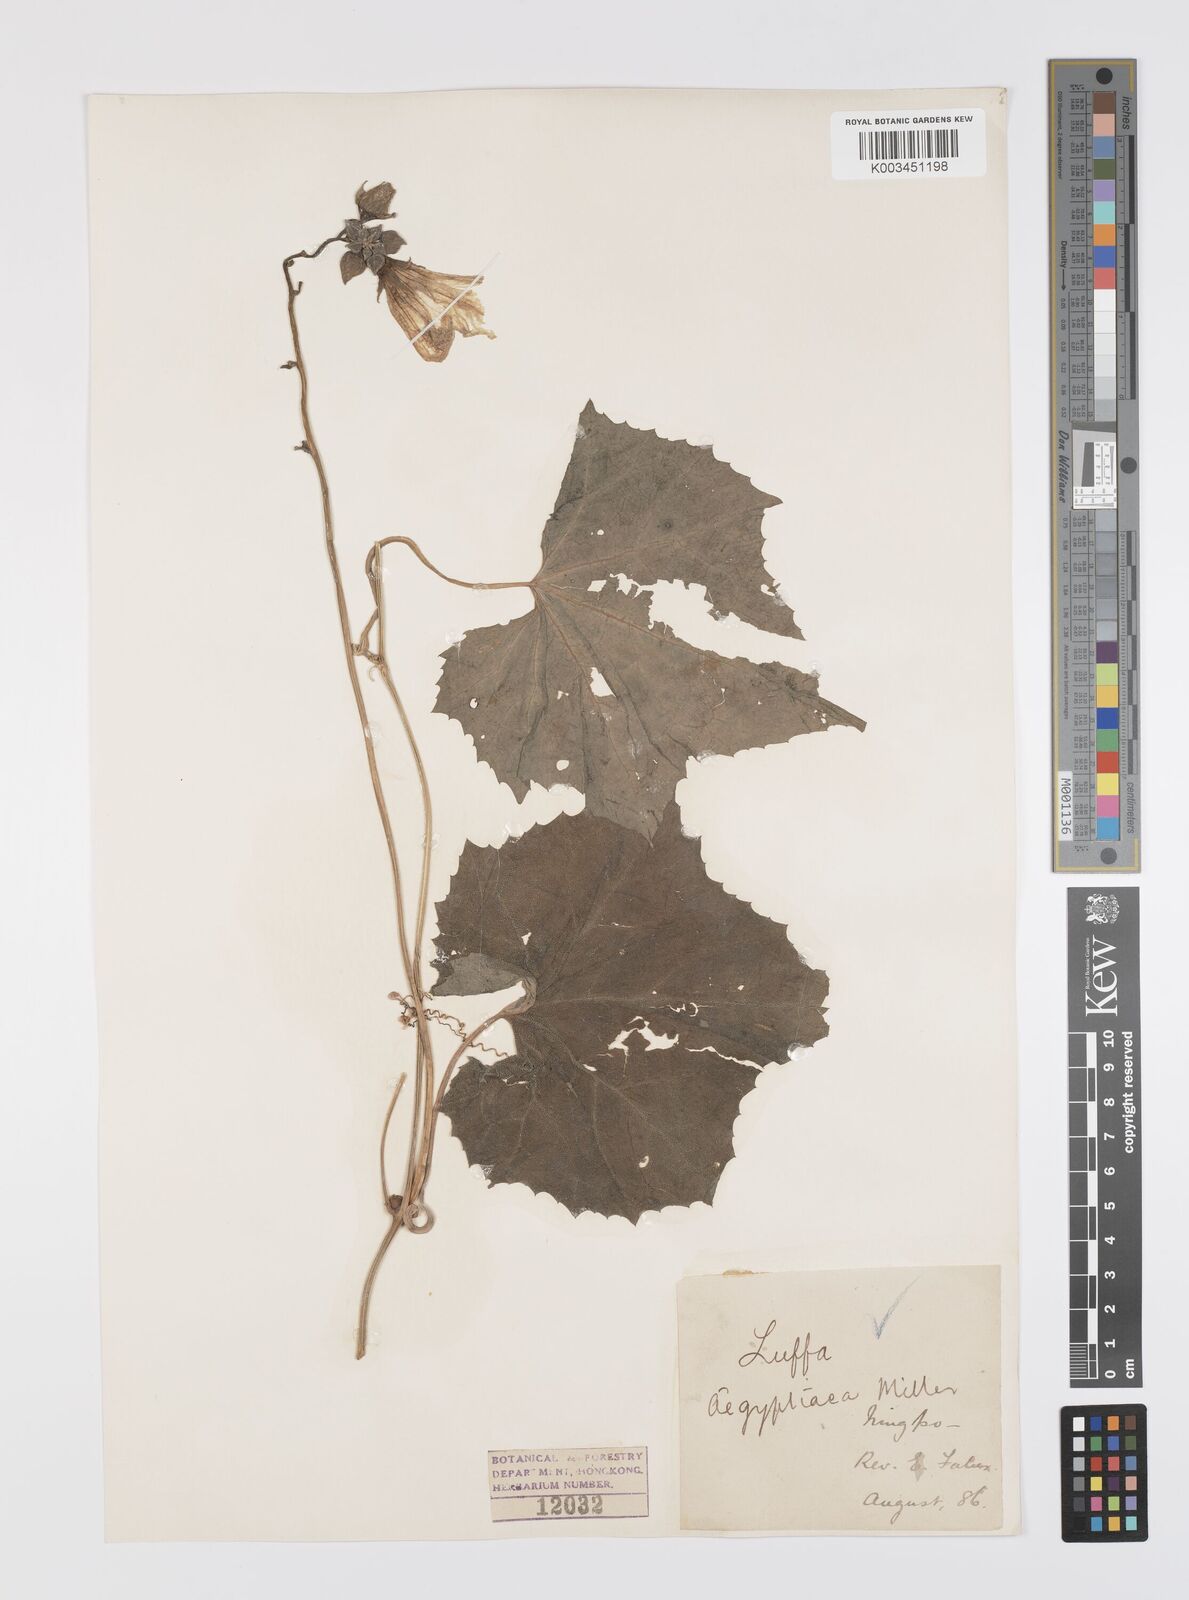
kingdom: Plantae
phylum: Tracheophyta
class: Magnoliopsida
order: Cucurbitales
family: Cucurbitaceae
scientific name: Cucurbitaceae
